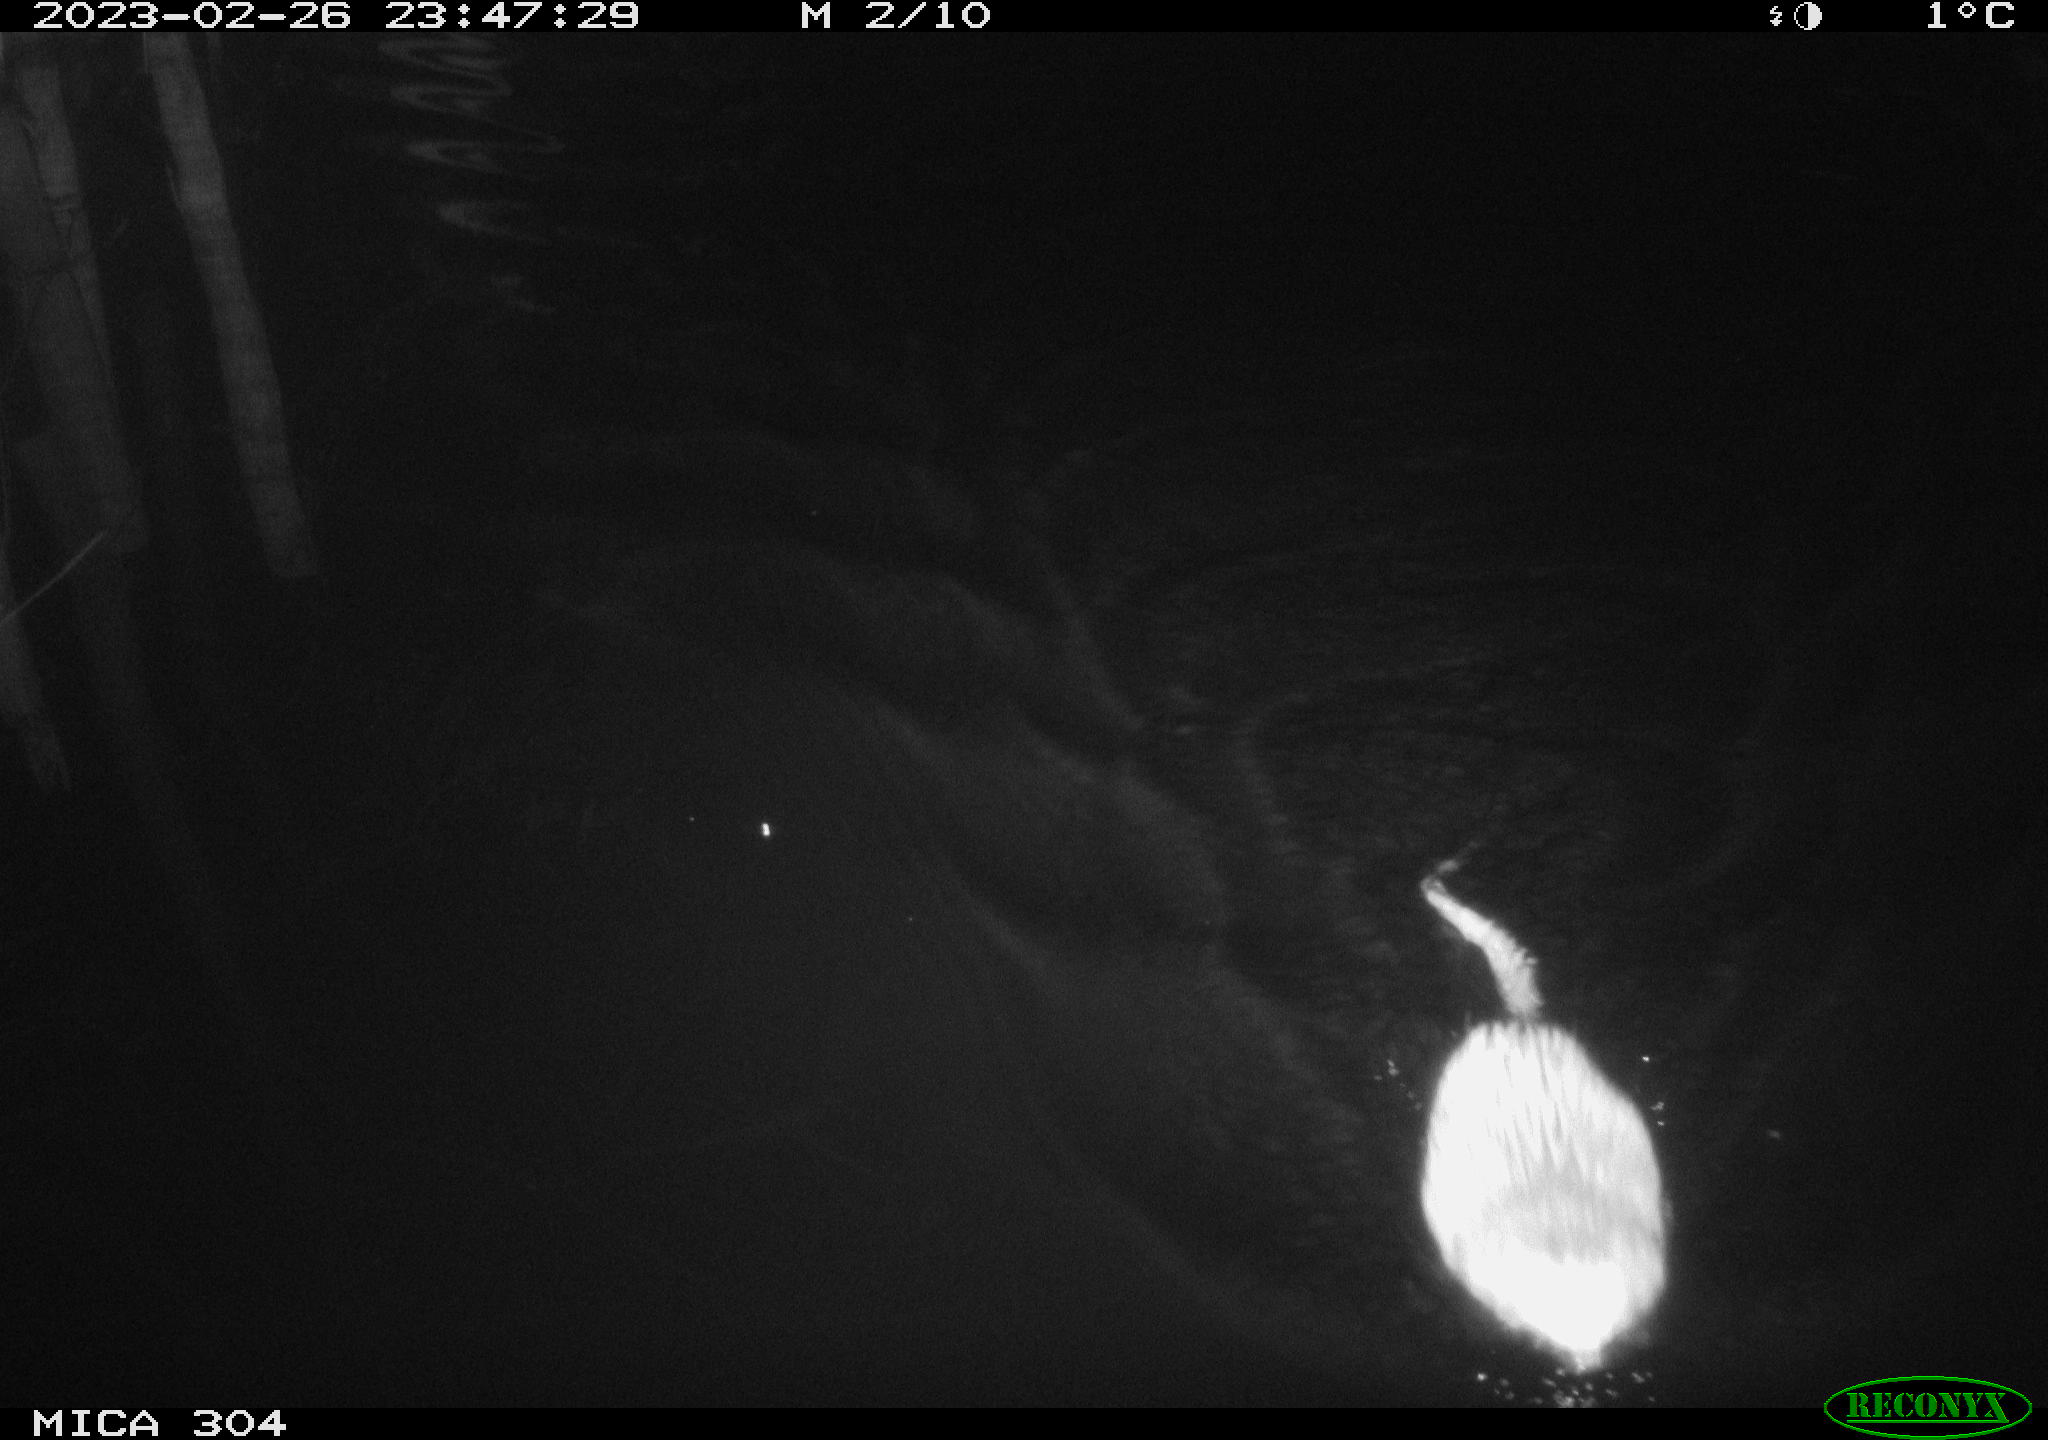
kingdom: Animalia
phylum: Chordata
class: Mammalia
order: Rodentia
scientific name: Rodentia
